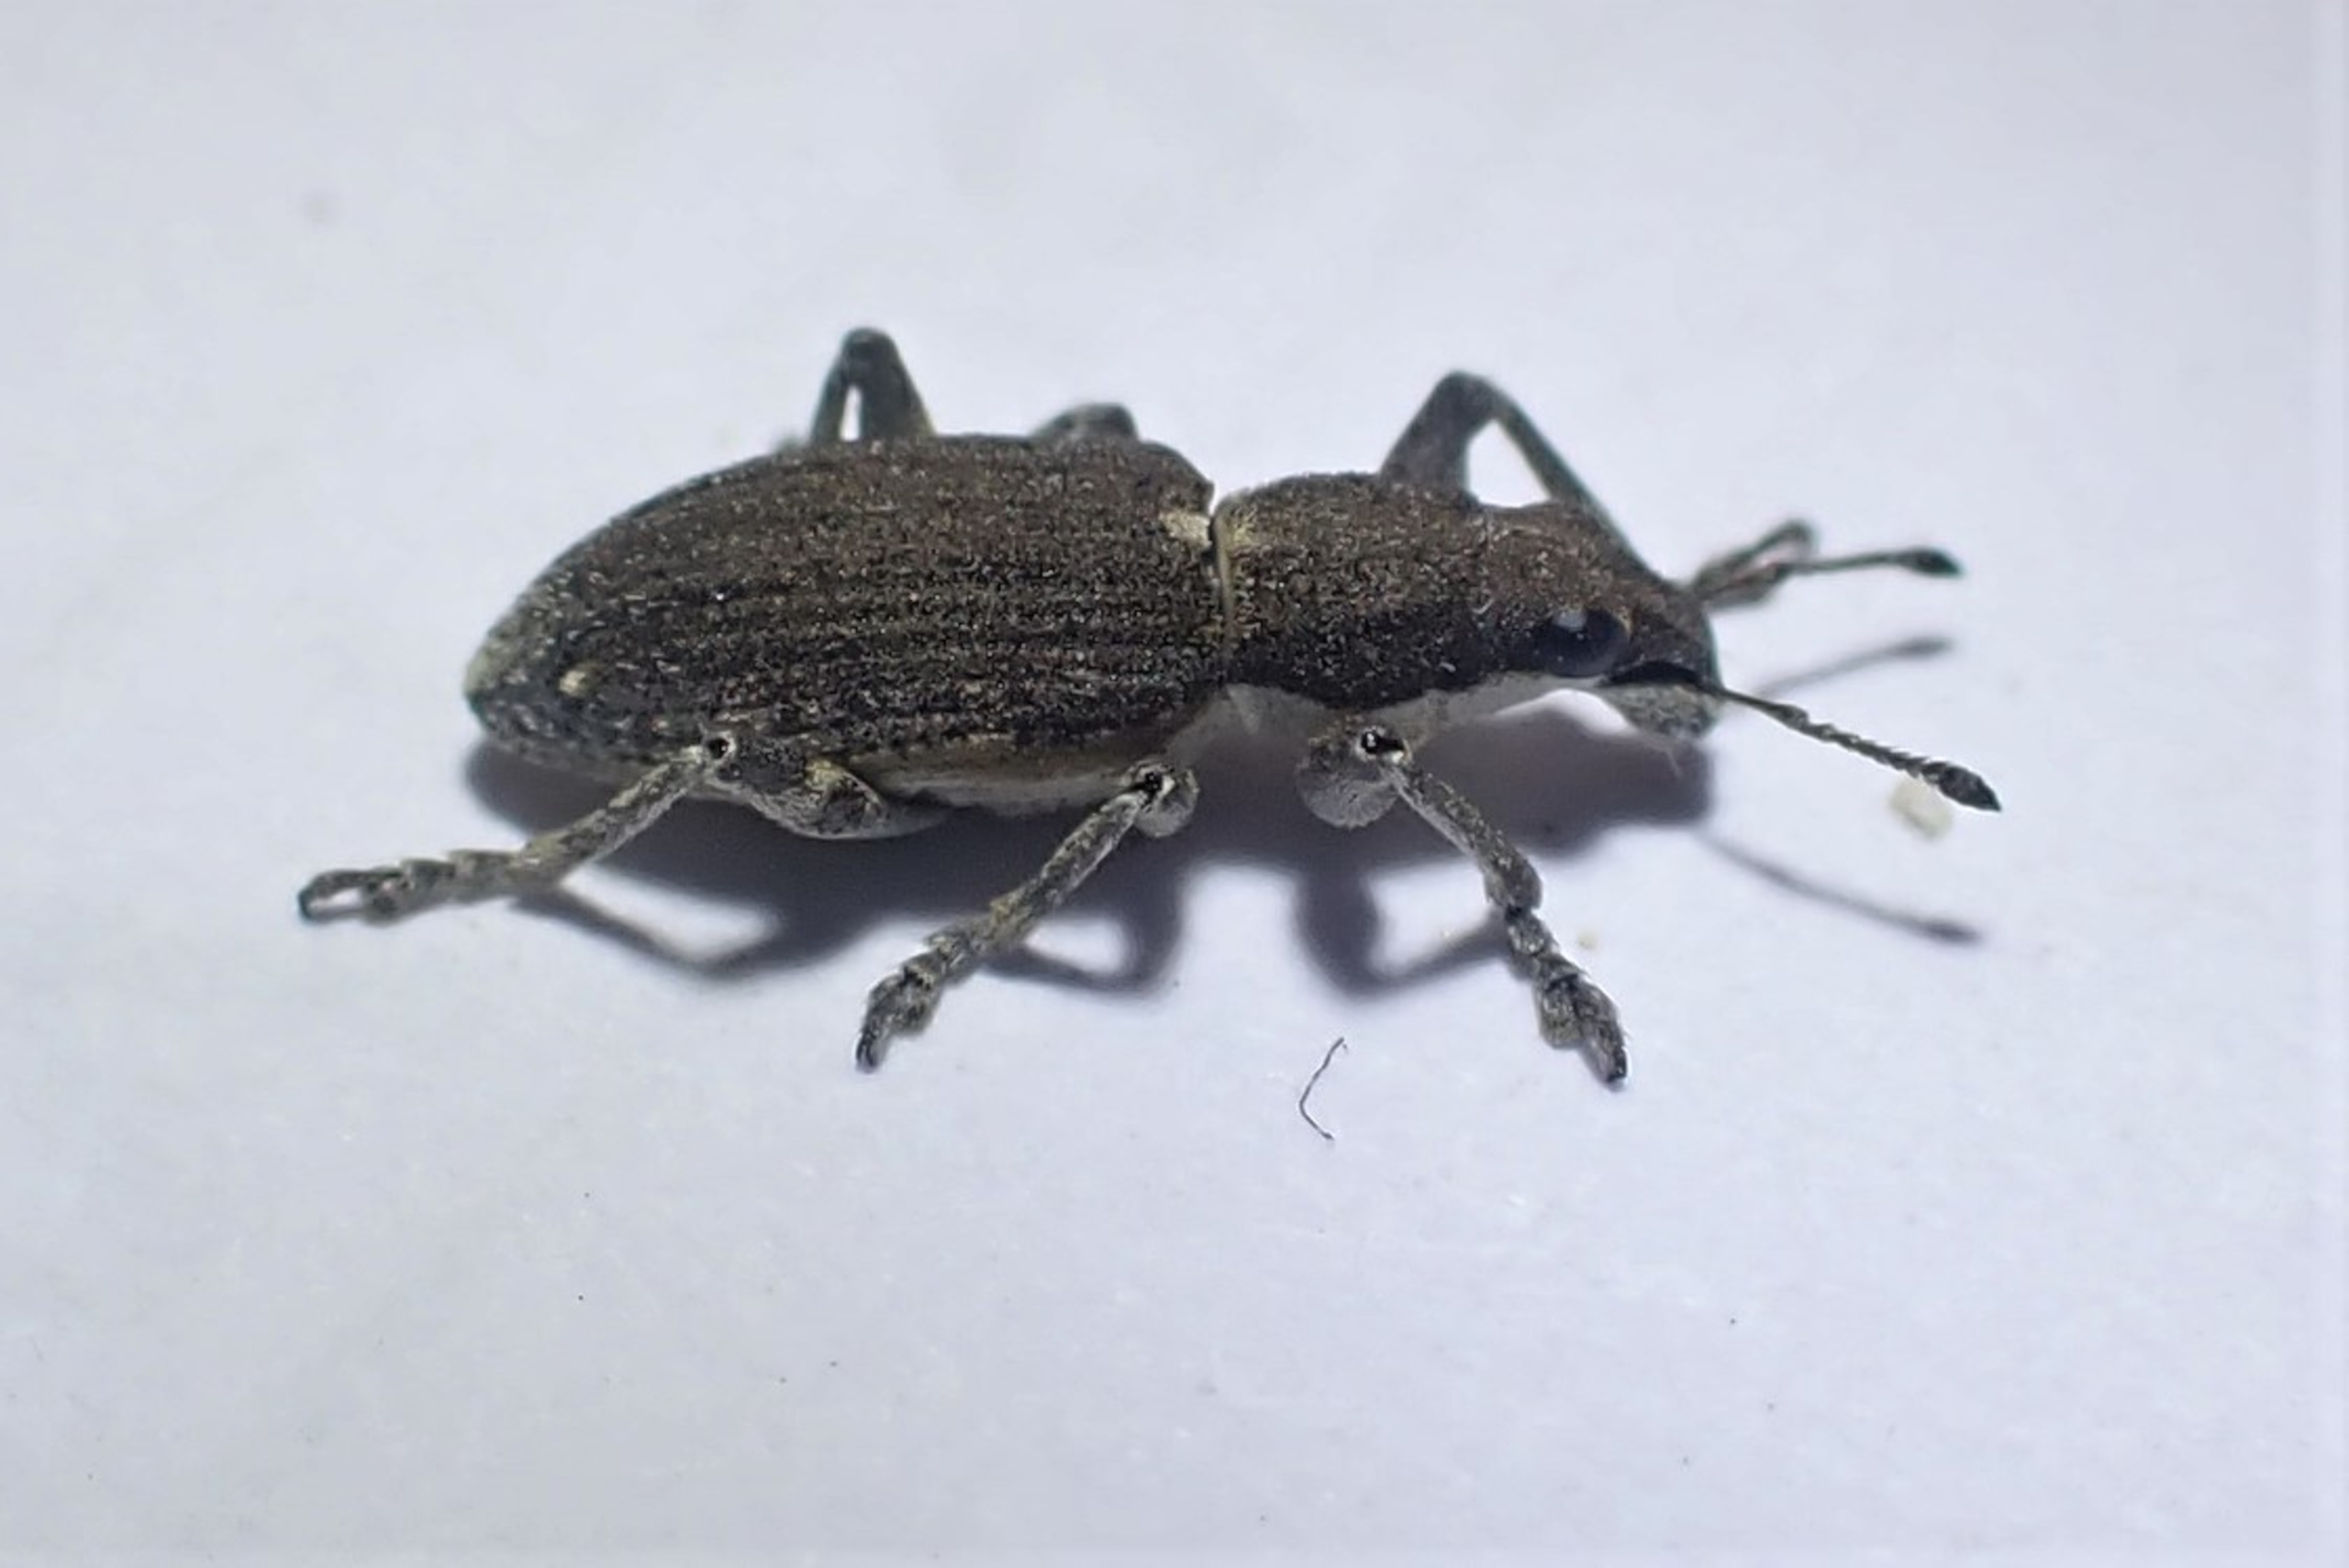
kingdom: Animalia
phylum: Arthropoda
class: Insecta
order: Coleoptera
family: Curculionidae
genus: Charagmus
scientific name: Charagmus griseus
